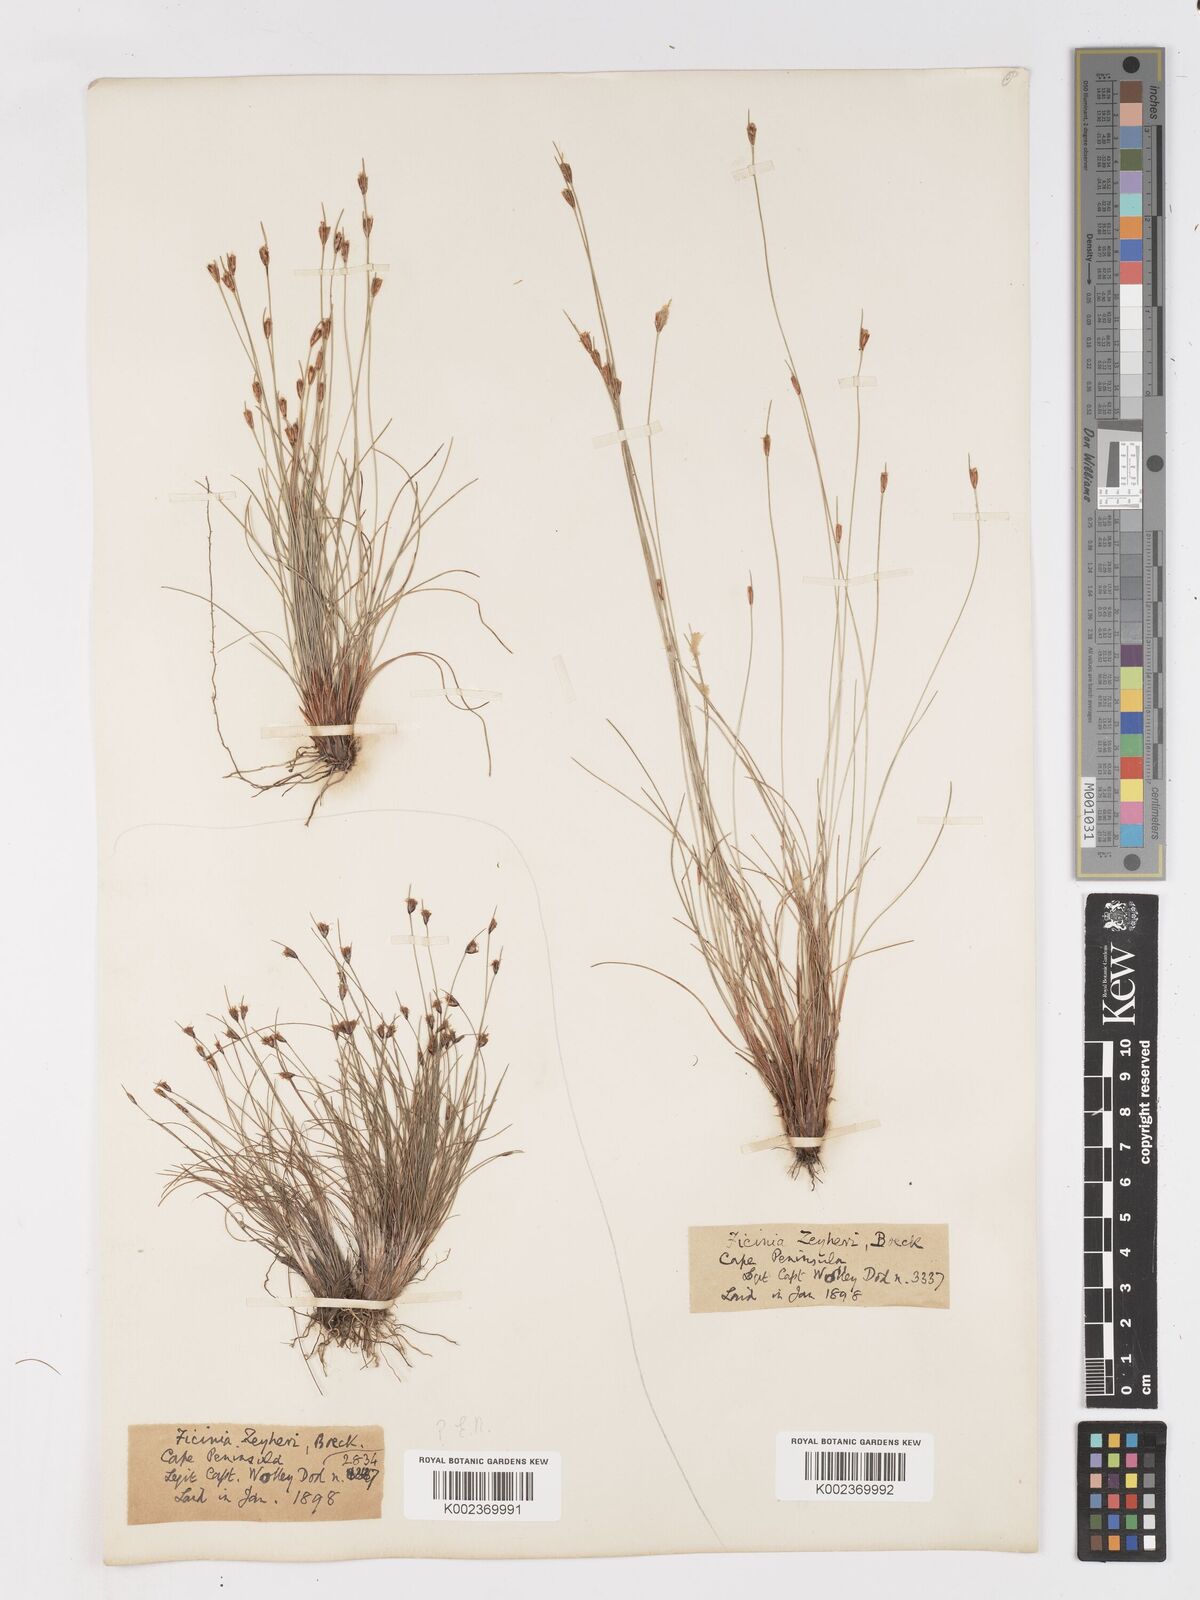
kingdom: Plantae
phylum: Tracheophyta
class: Liliopsida
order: Poales
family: Cyperaceae
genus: Ficinia
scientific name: Ficinia zeyheri
